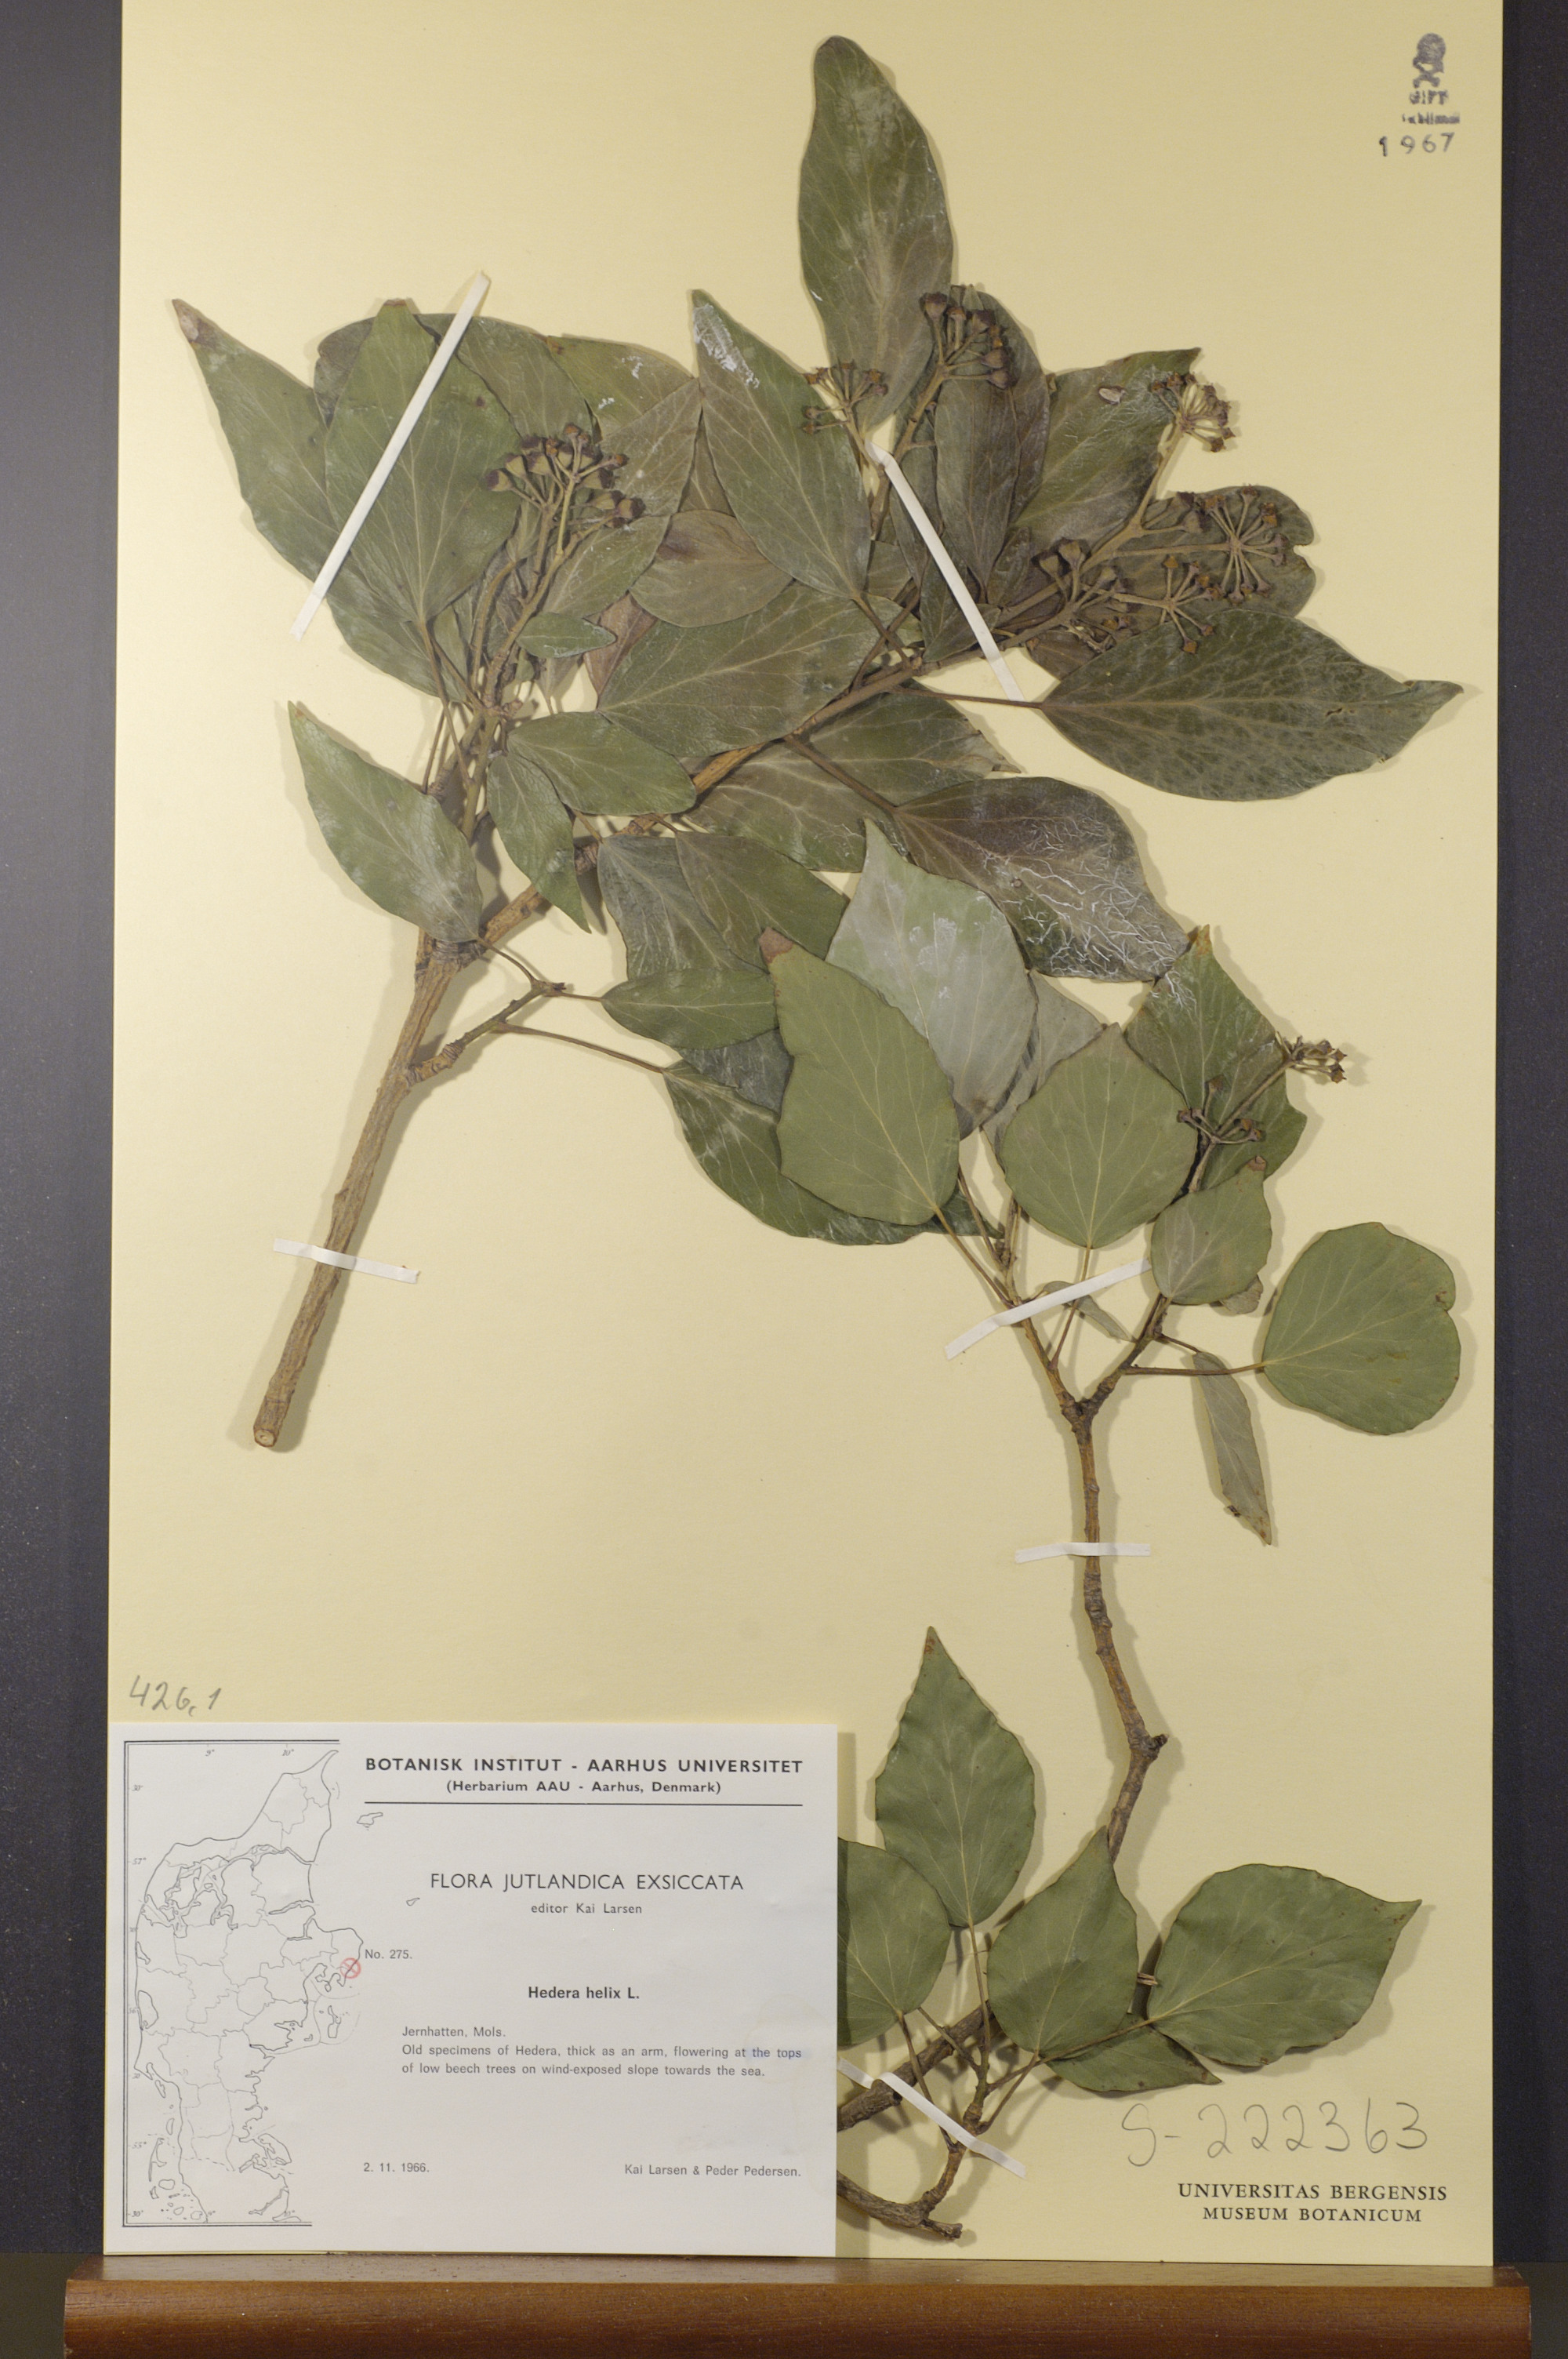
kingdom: Plantae
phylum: Tracheophyta
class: Magnoliopsida
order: Apiales
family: Araliaceae
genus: Hedera
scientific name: Hedera helix
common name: Ivy
